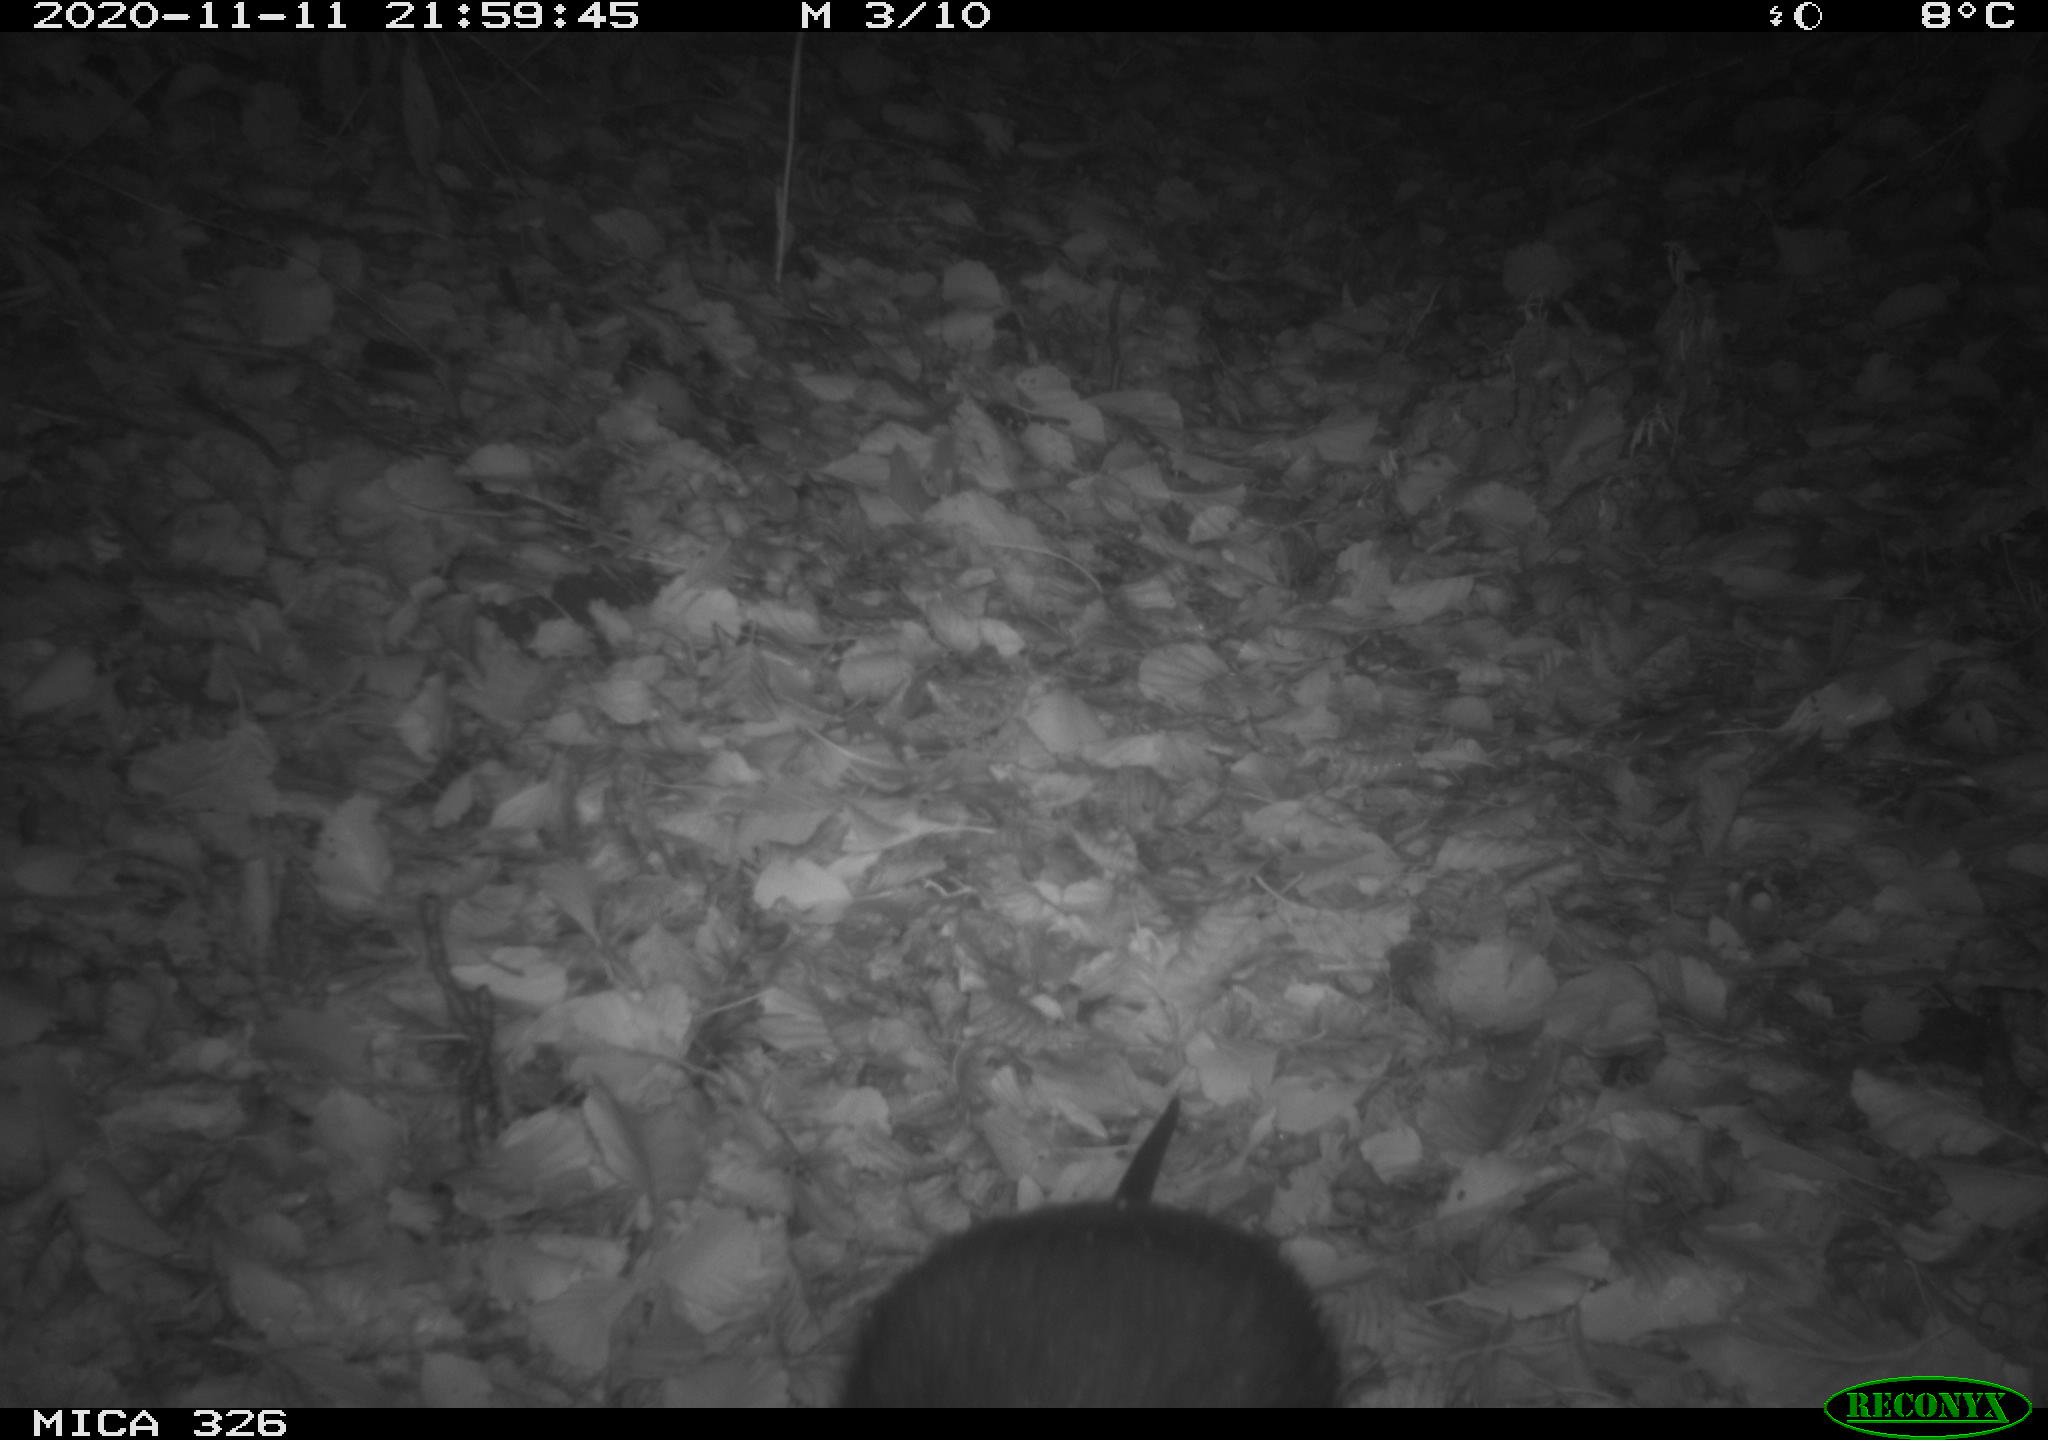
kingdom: Animalia
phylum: Chordata
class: Mammalia
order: Rodentia
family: Myocastoridae
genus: Myocastor
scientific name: Myocastor coypus
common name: Coypu
